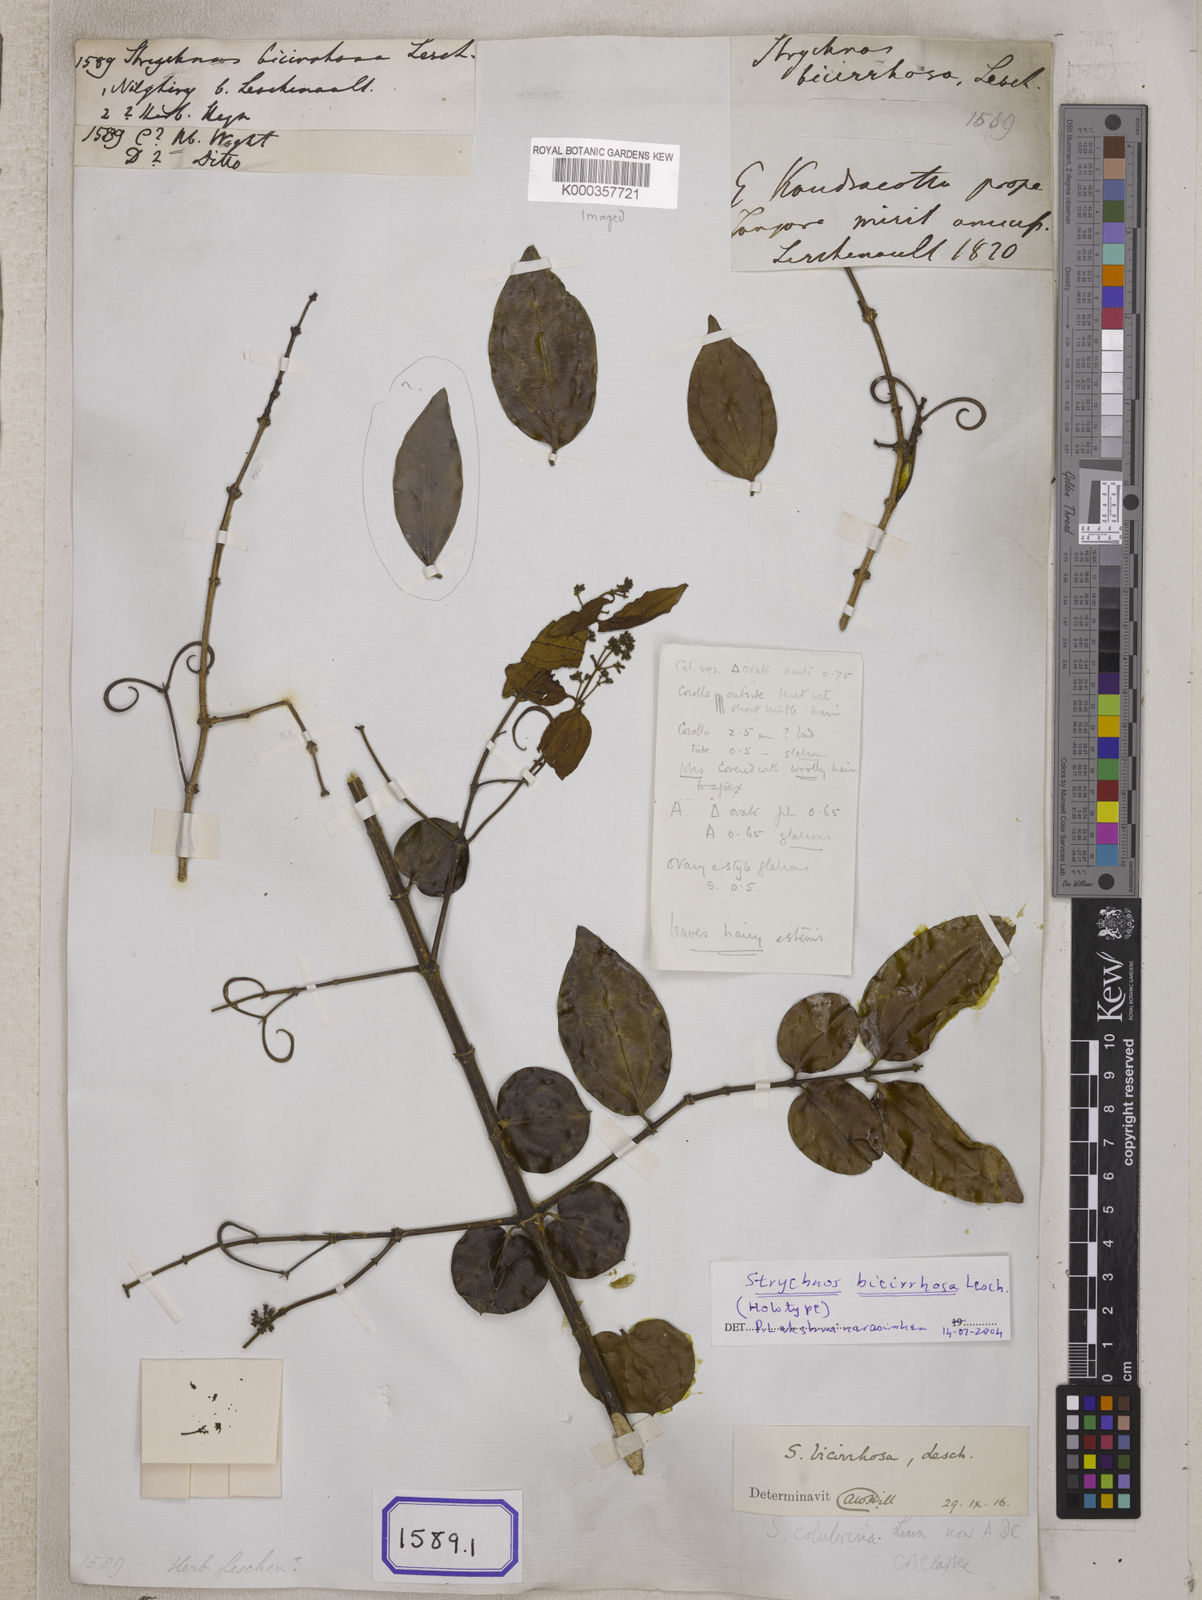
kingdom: Plantae
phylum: Tracheophyta
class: Magnoliopsida
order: Gentianales
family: Loganiaceae
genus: Strychnos
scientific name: Strychnos minor
